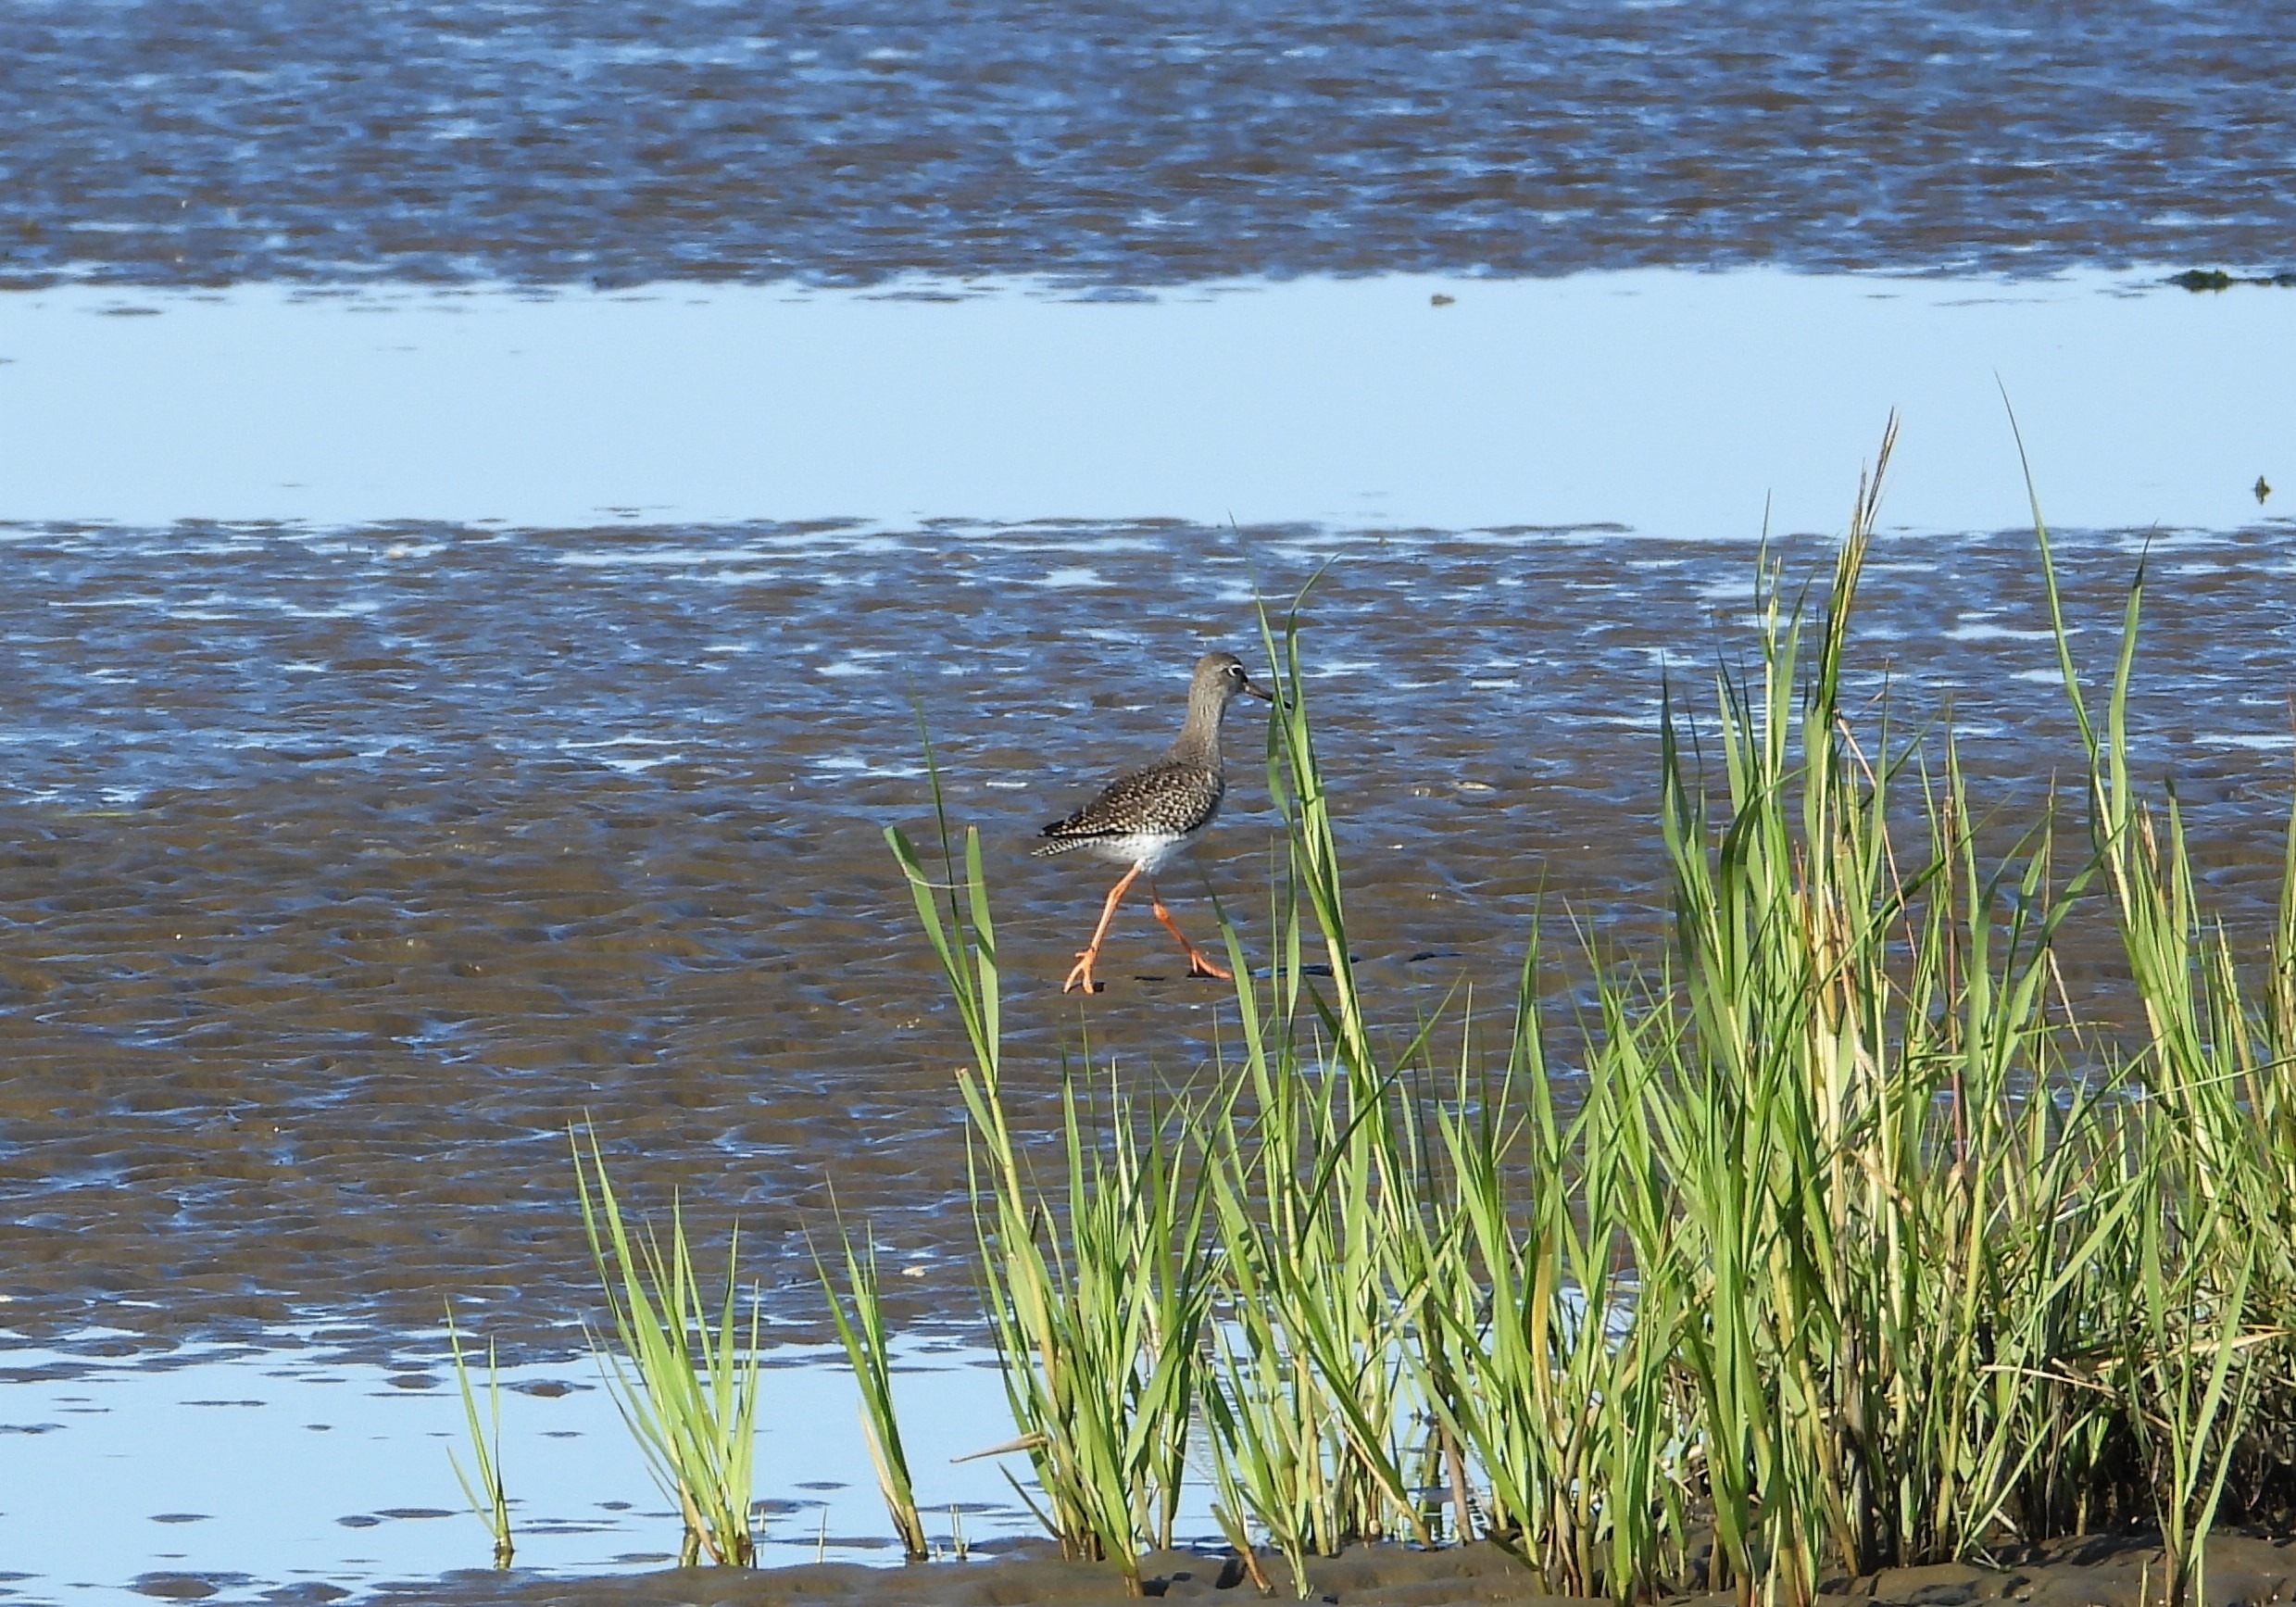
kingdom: Animalia
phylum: Chordata
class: Aves
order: Charadriiformes
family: Scolopacidae
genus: Tringa
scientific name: Tringa totanus
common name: Rødben
